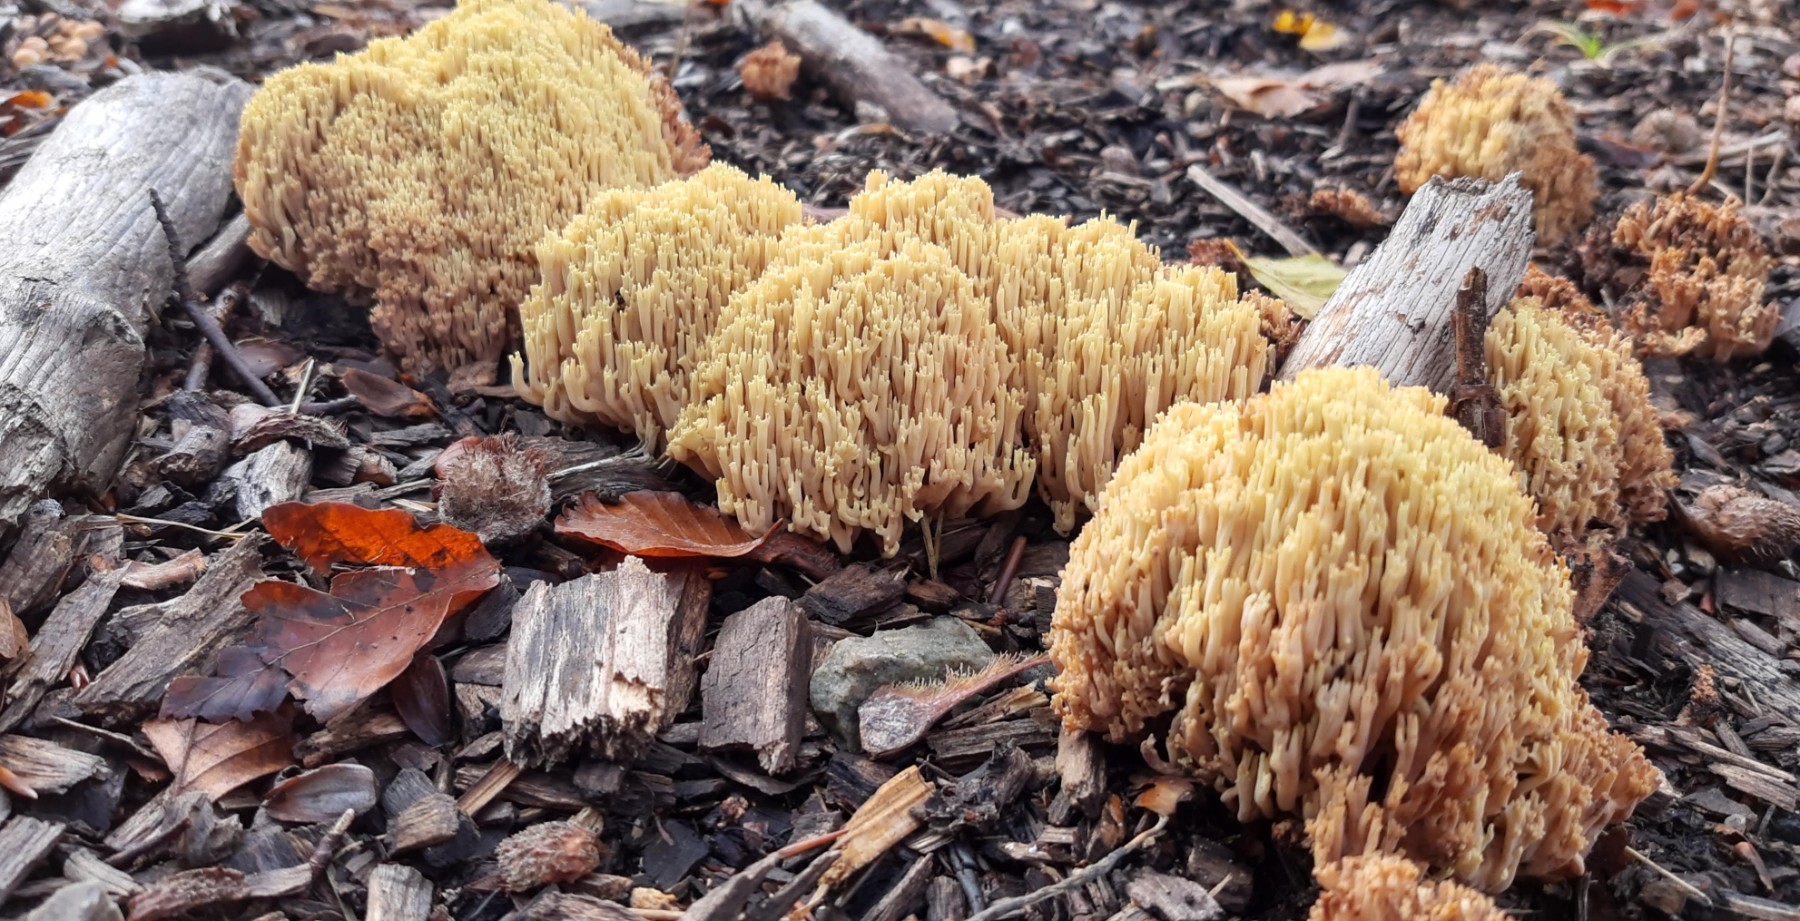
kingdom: Fungi
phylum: Basidiomycota
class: Agaricomycetes
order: Gomphales
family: Gomphaceae
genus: Ramaria
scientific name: Ramaria stricta
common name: rank koralsvamp
